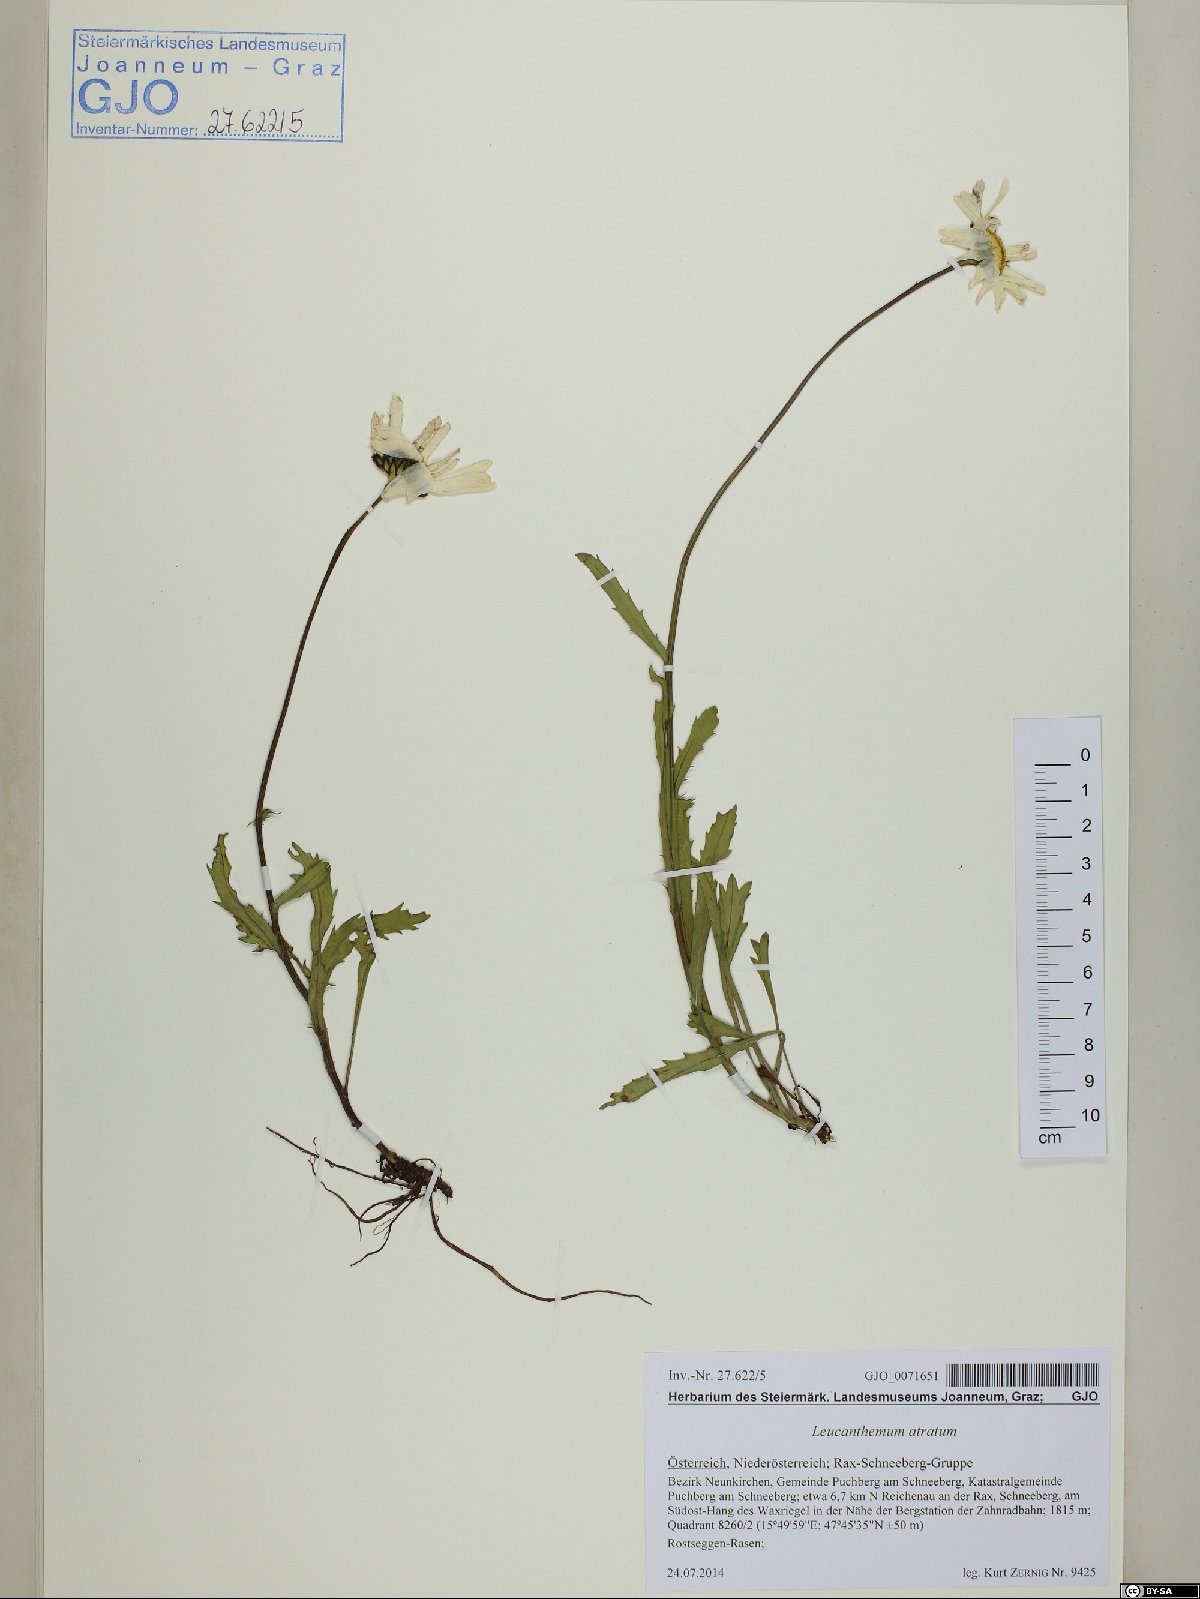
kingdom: Plantae
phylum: Tracheophyta
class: Magnoliopsida
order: Asterales
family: Asteraceae
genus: Leucanthemum
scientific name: Leucanthemum atratum
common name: Saw-leaved moon-daisy
